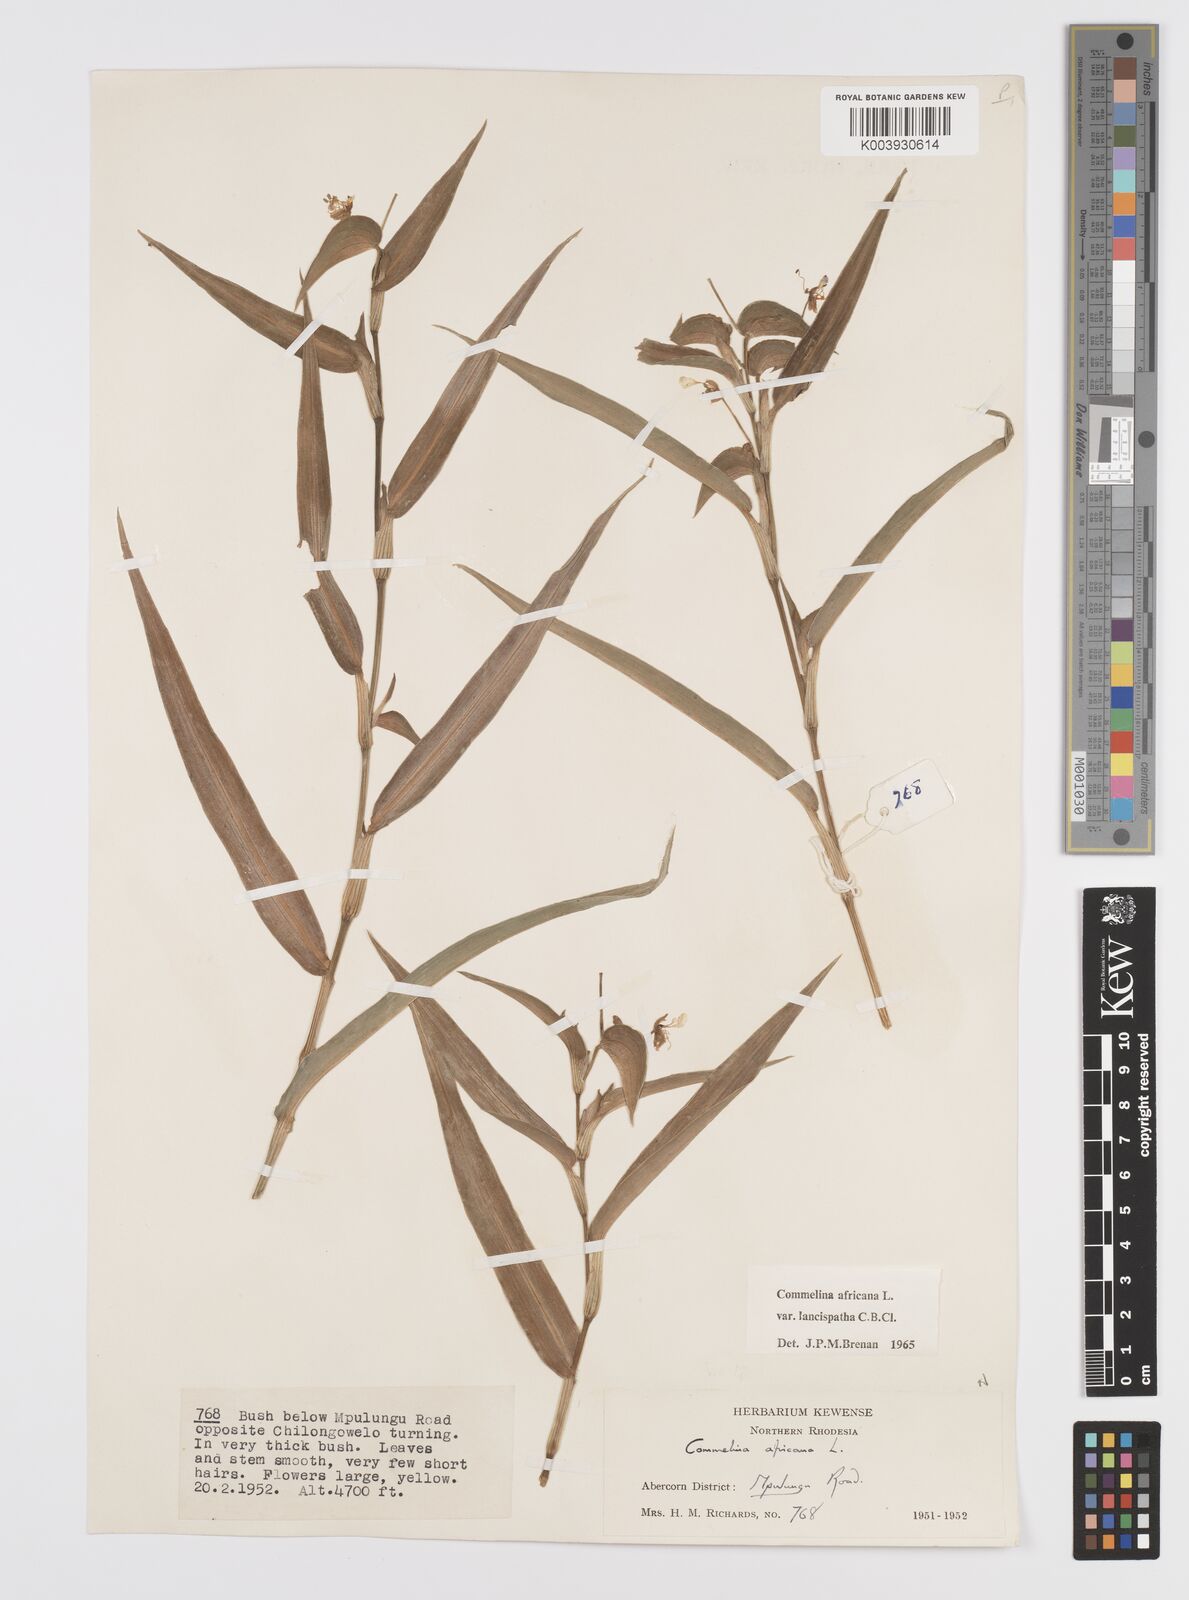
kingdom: Plantae
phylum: Tracheophyta
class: Liliopsida
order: Commelinales
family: Commelinaceae
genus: Commelina
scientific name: Commelina africana
